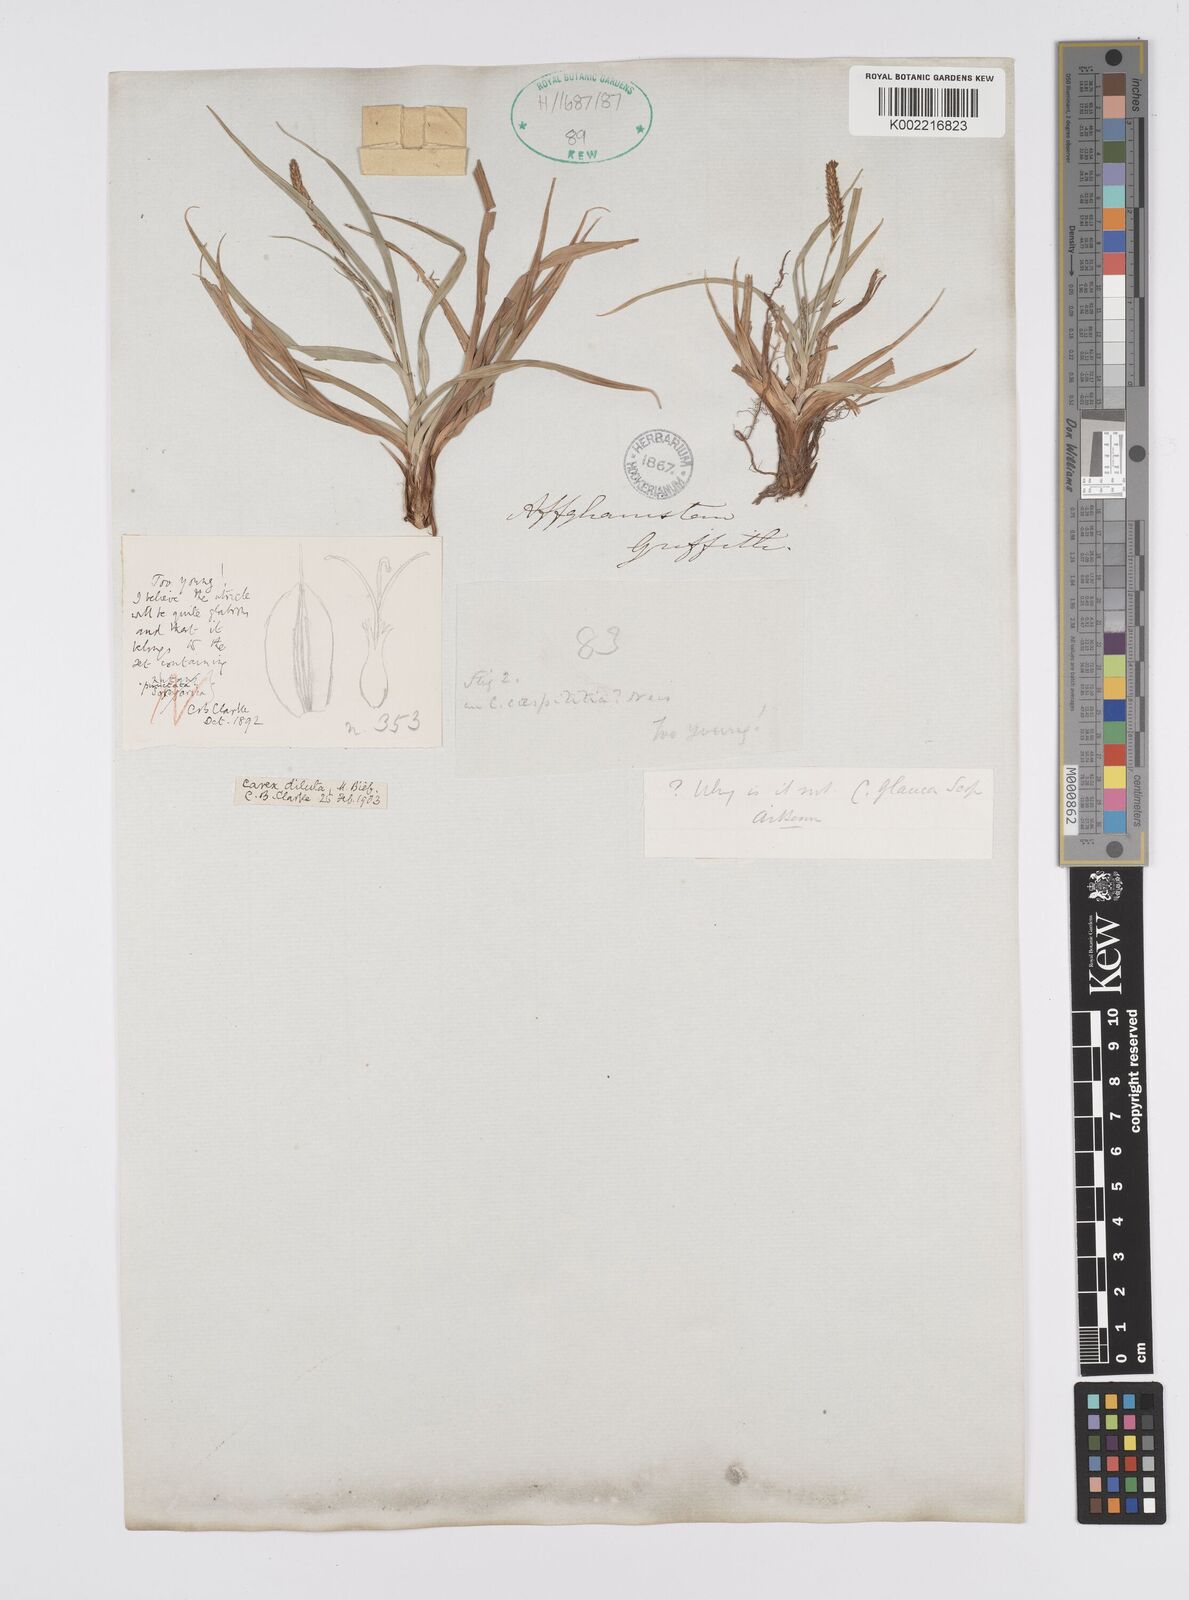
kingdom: Plantae
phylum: Tracheophyta
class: Liliopsida
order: Poales
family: Cyperaceae
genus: Carex
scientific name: Carex diluta
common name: Sedge
